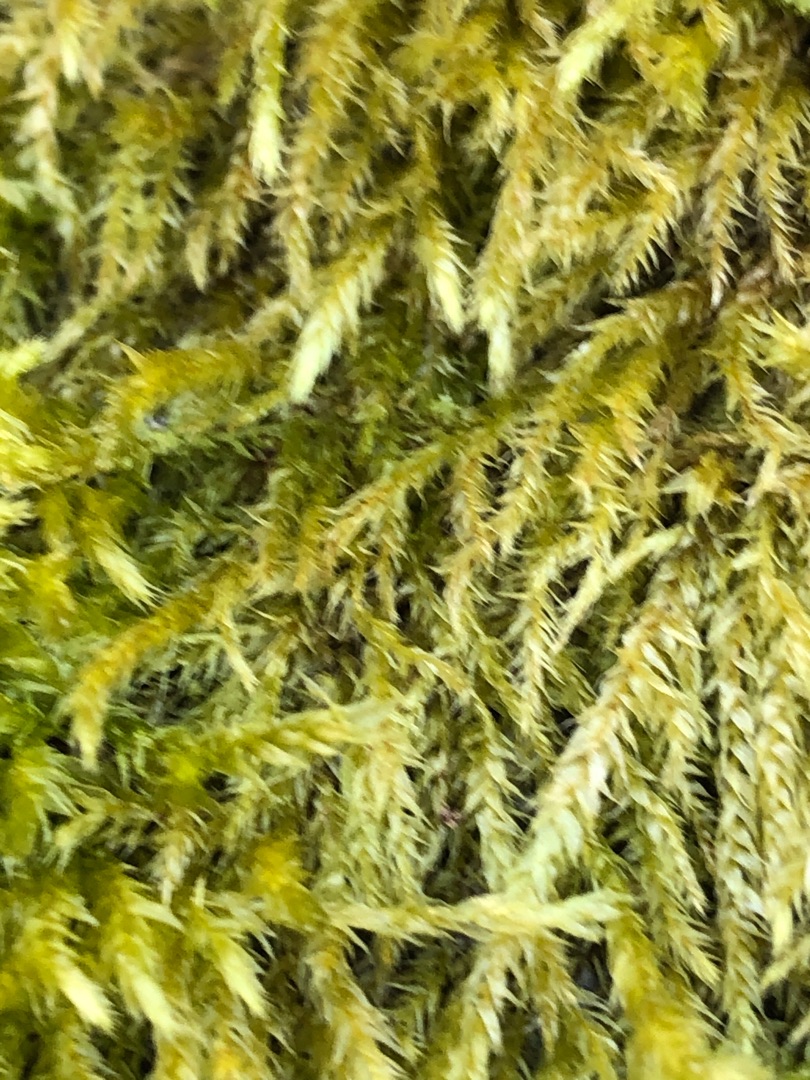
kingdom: Plantae
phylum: Bryophyta
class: Bryopsida
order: Hypnales
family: Brachytheciaceae
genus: Brachythecium
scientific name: Brachythecium rutabulum
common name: Almindelig kortkapsel
